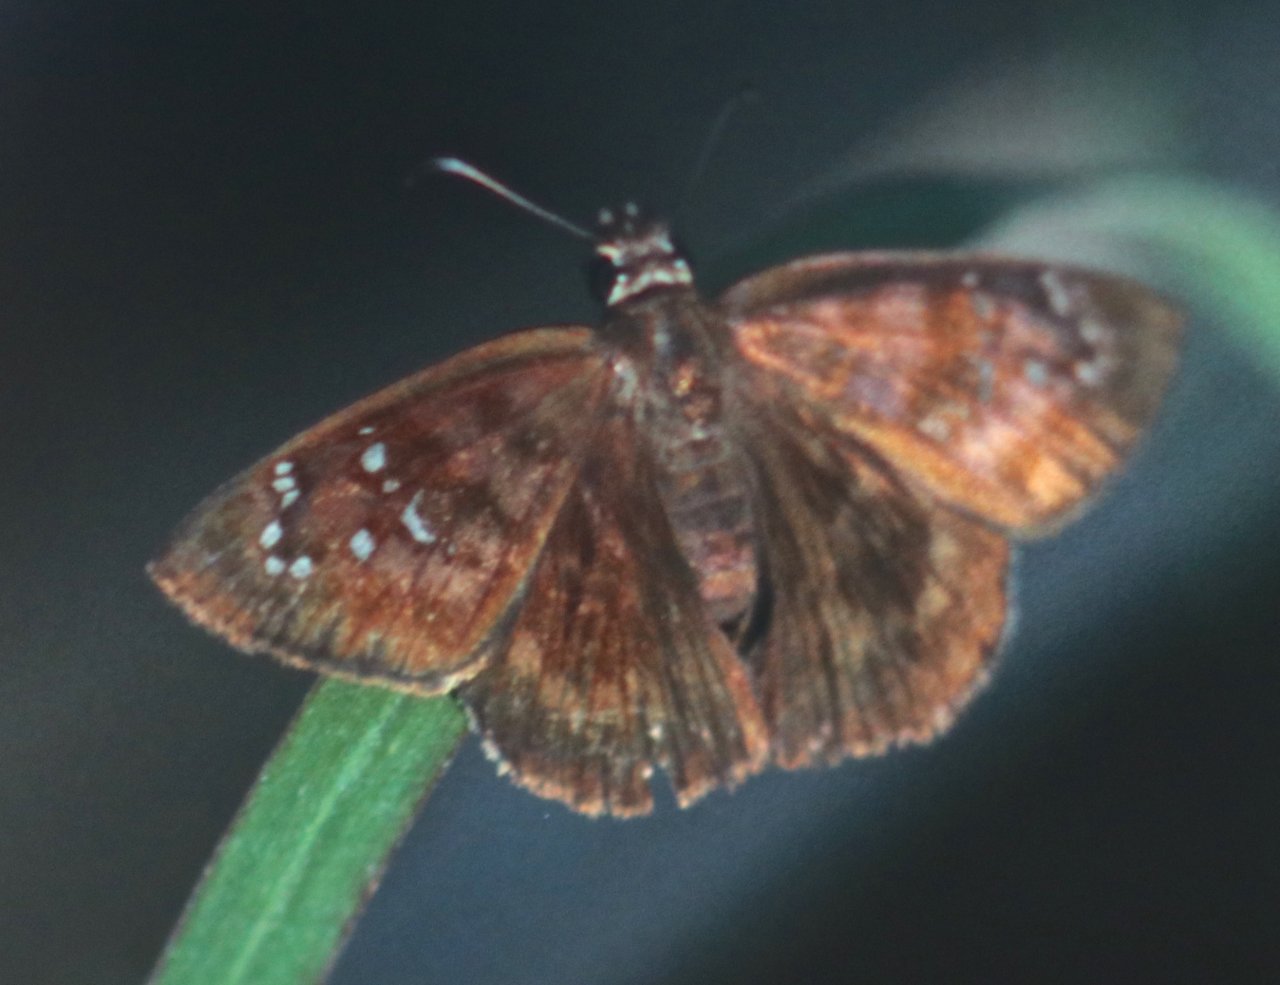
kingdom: Animalia
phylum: Arthropoda
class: Insecta
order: Lepidoptera
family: Hesperiidae
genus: Ephyriades
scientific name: Ephyriades brunnea
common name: Florida Duskywing
